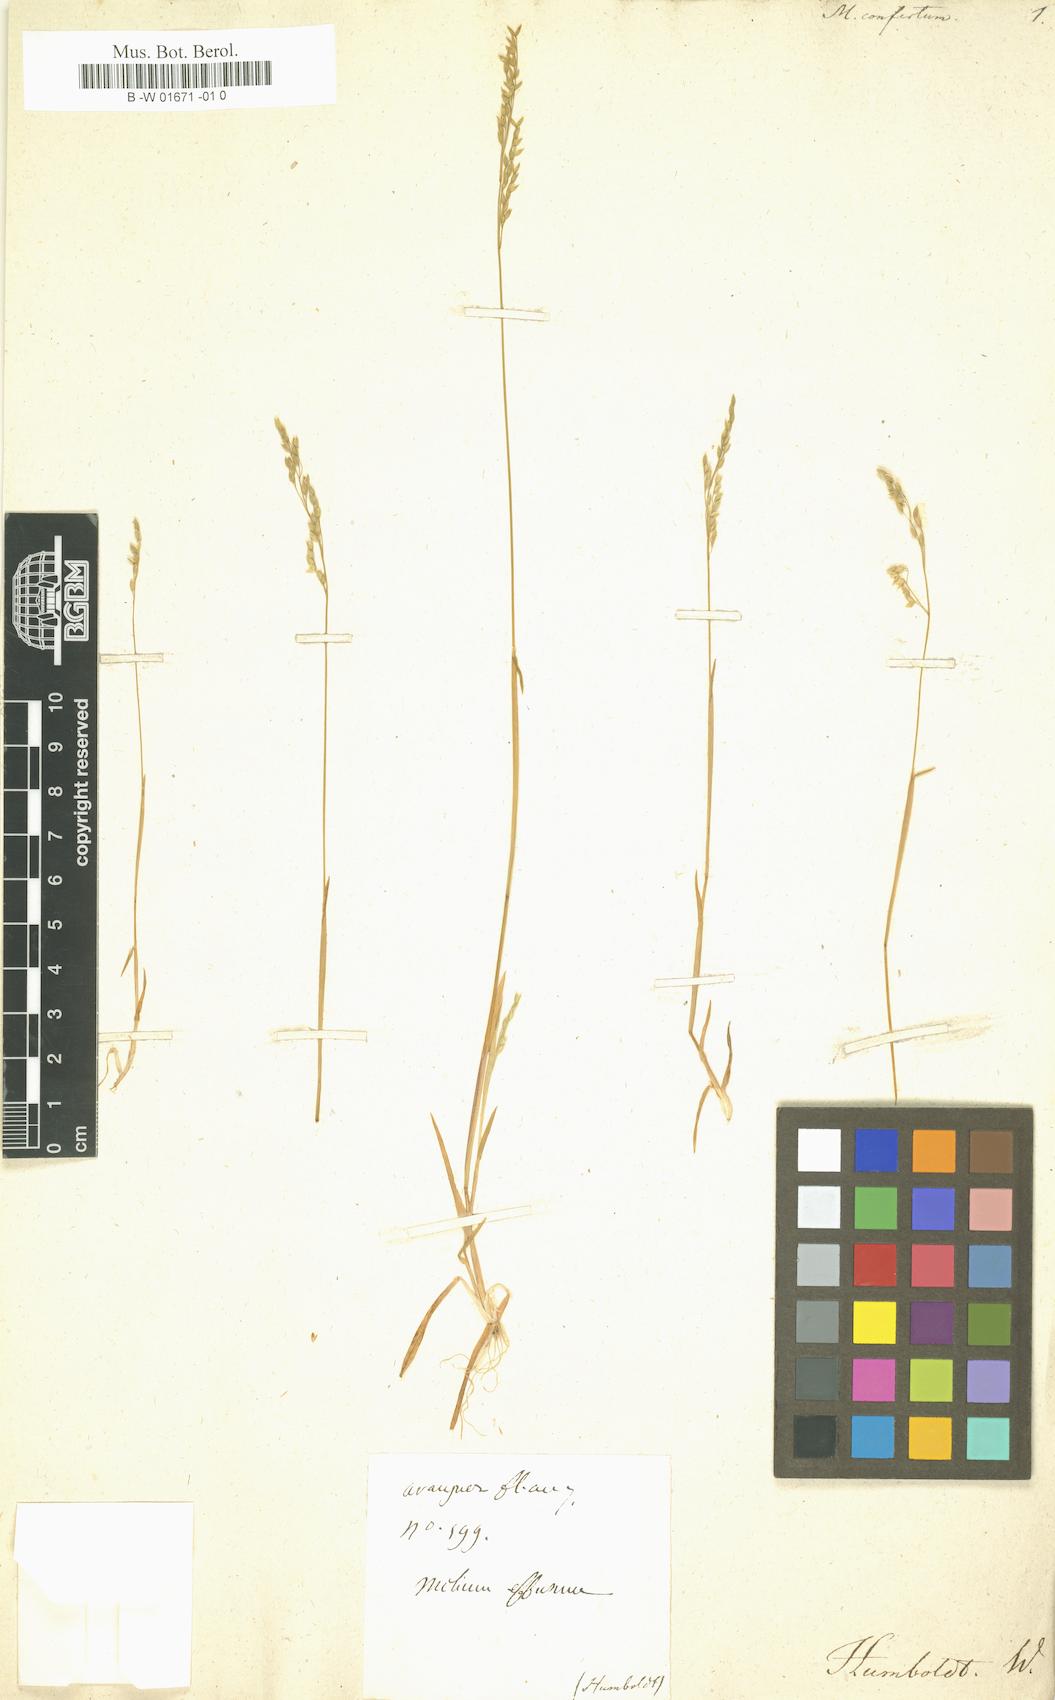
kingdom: Plantae
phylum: Tracheophyta
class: Liliopsida
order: Poales
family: Poaceae
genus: Milium
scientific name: Milium confertum
